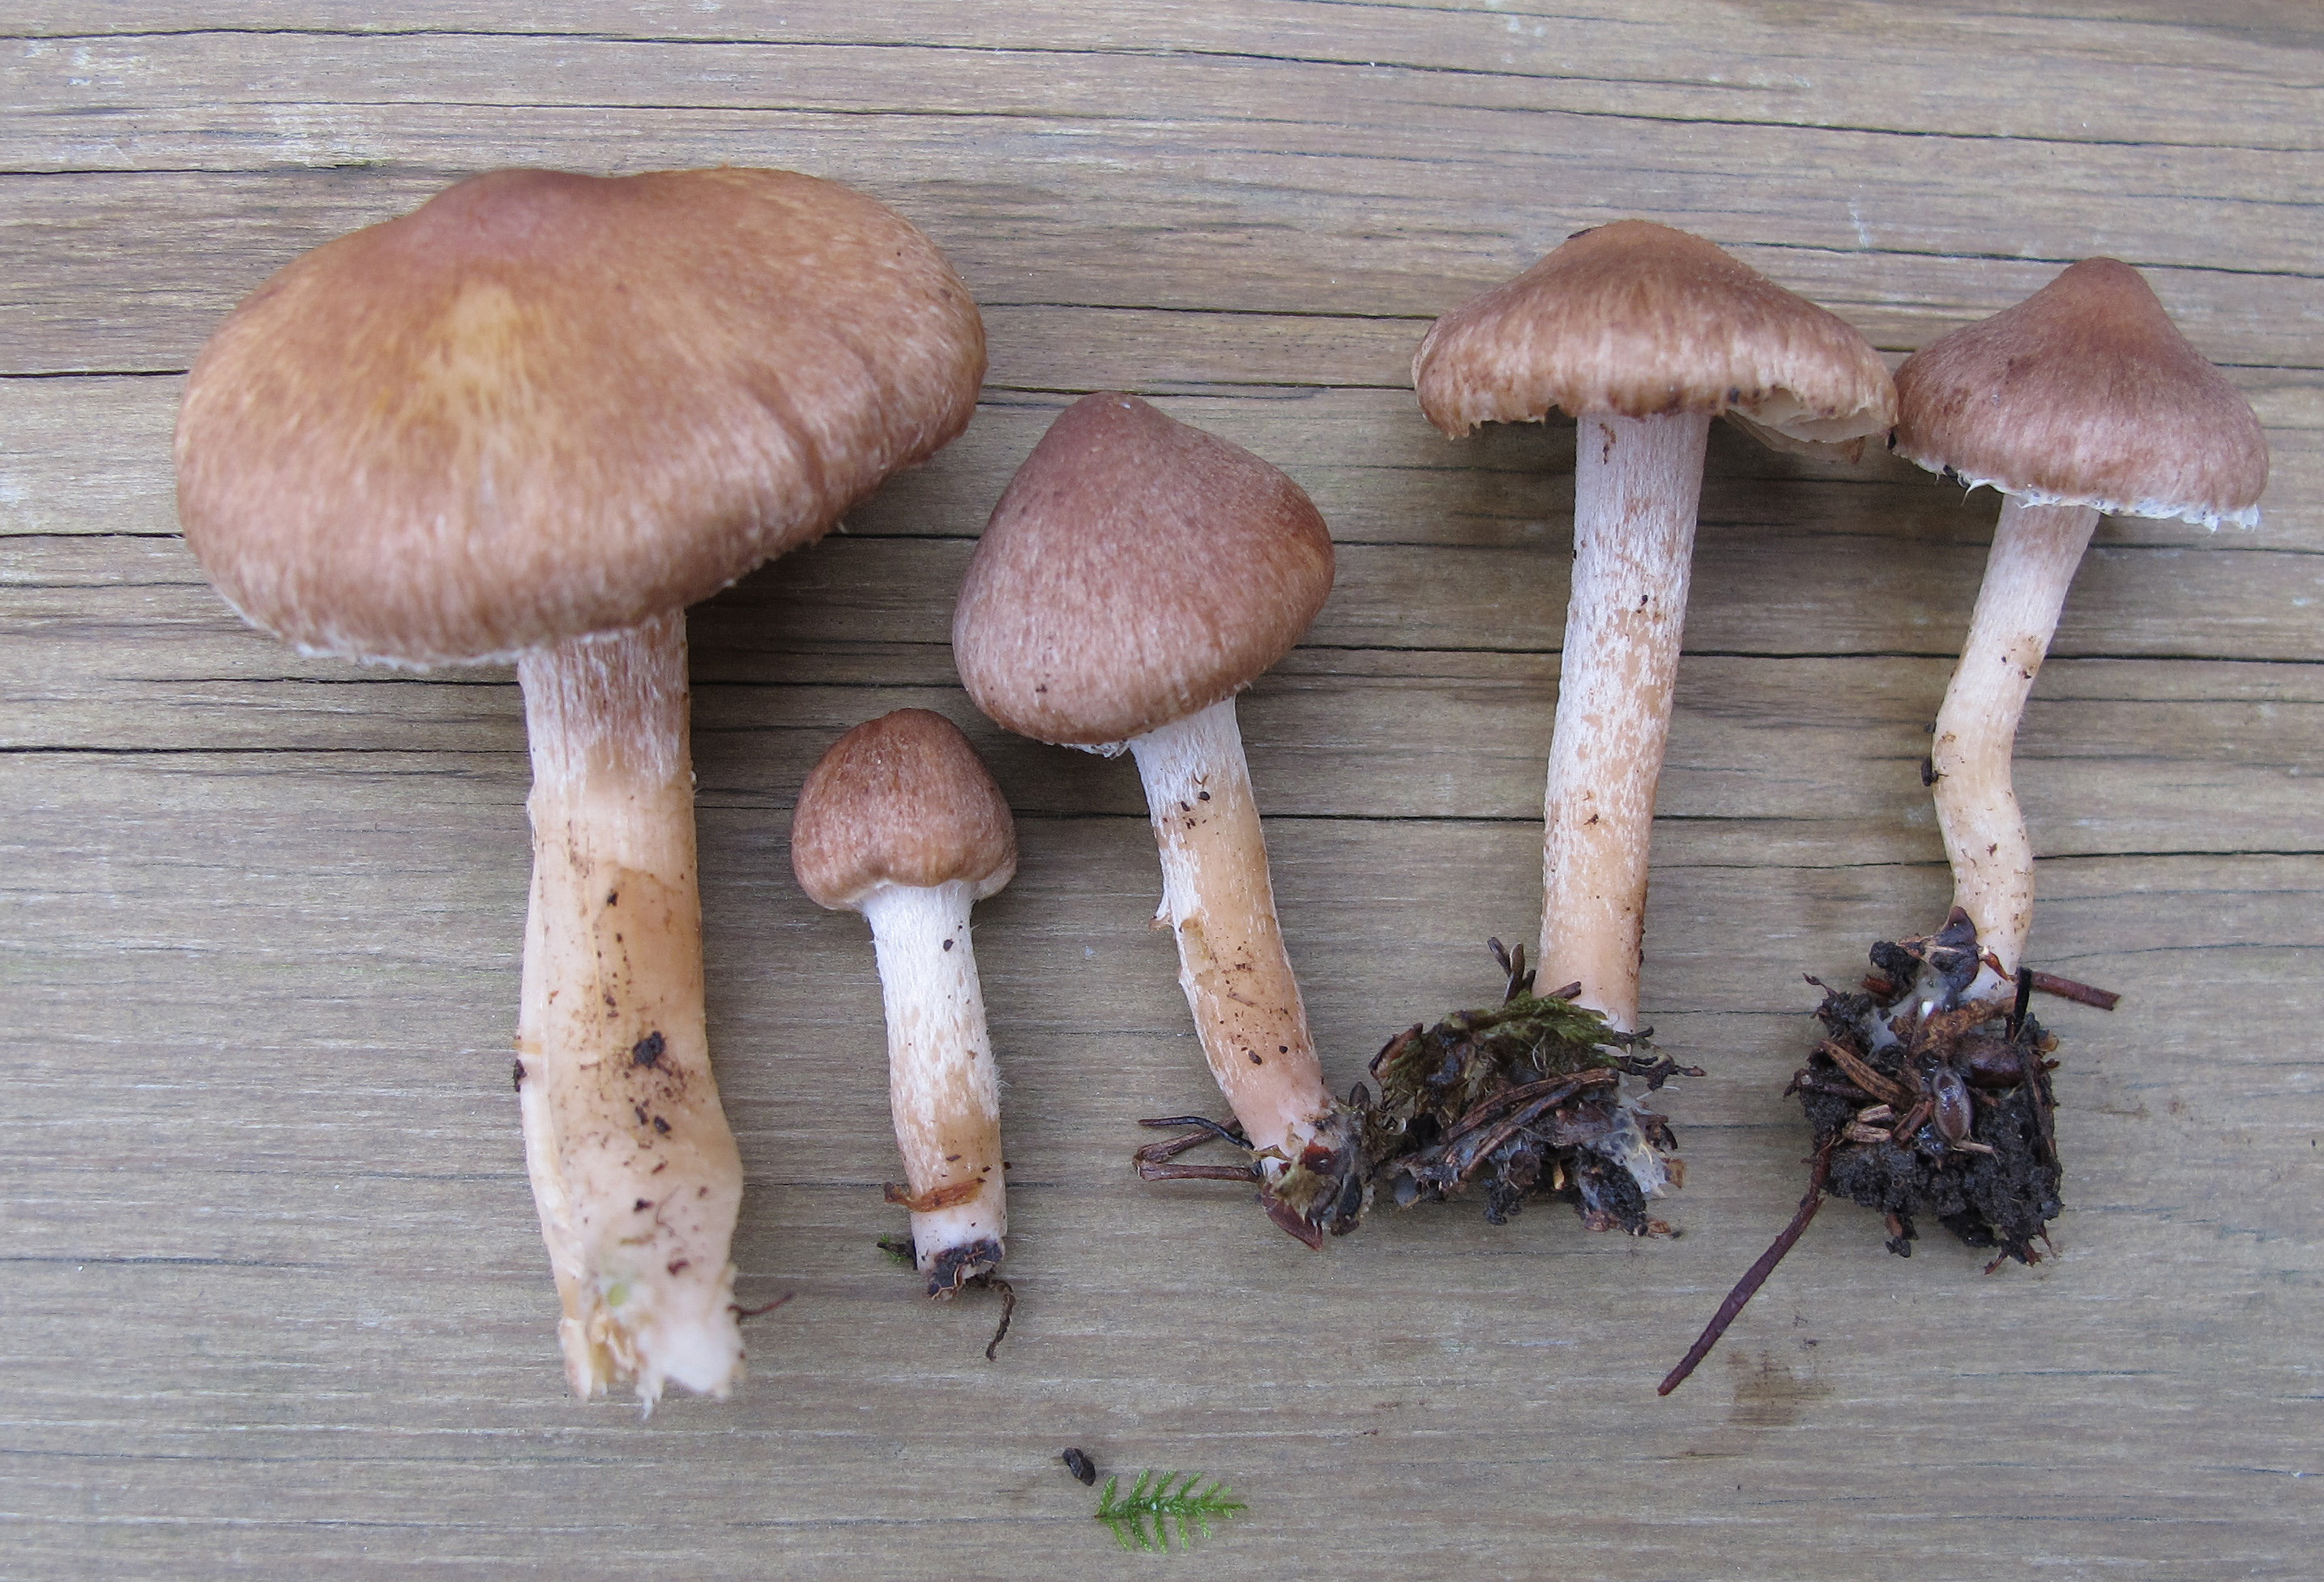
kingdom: Fungi
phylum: Basidiomycota
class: Agaricomycetes
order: Agaricales
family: Inocybaceae
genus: Inocybe
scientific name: Inocybe flocculosa
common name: Fleecy fibrecap
